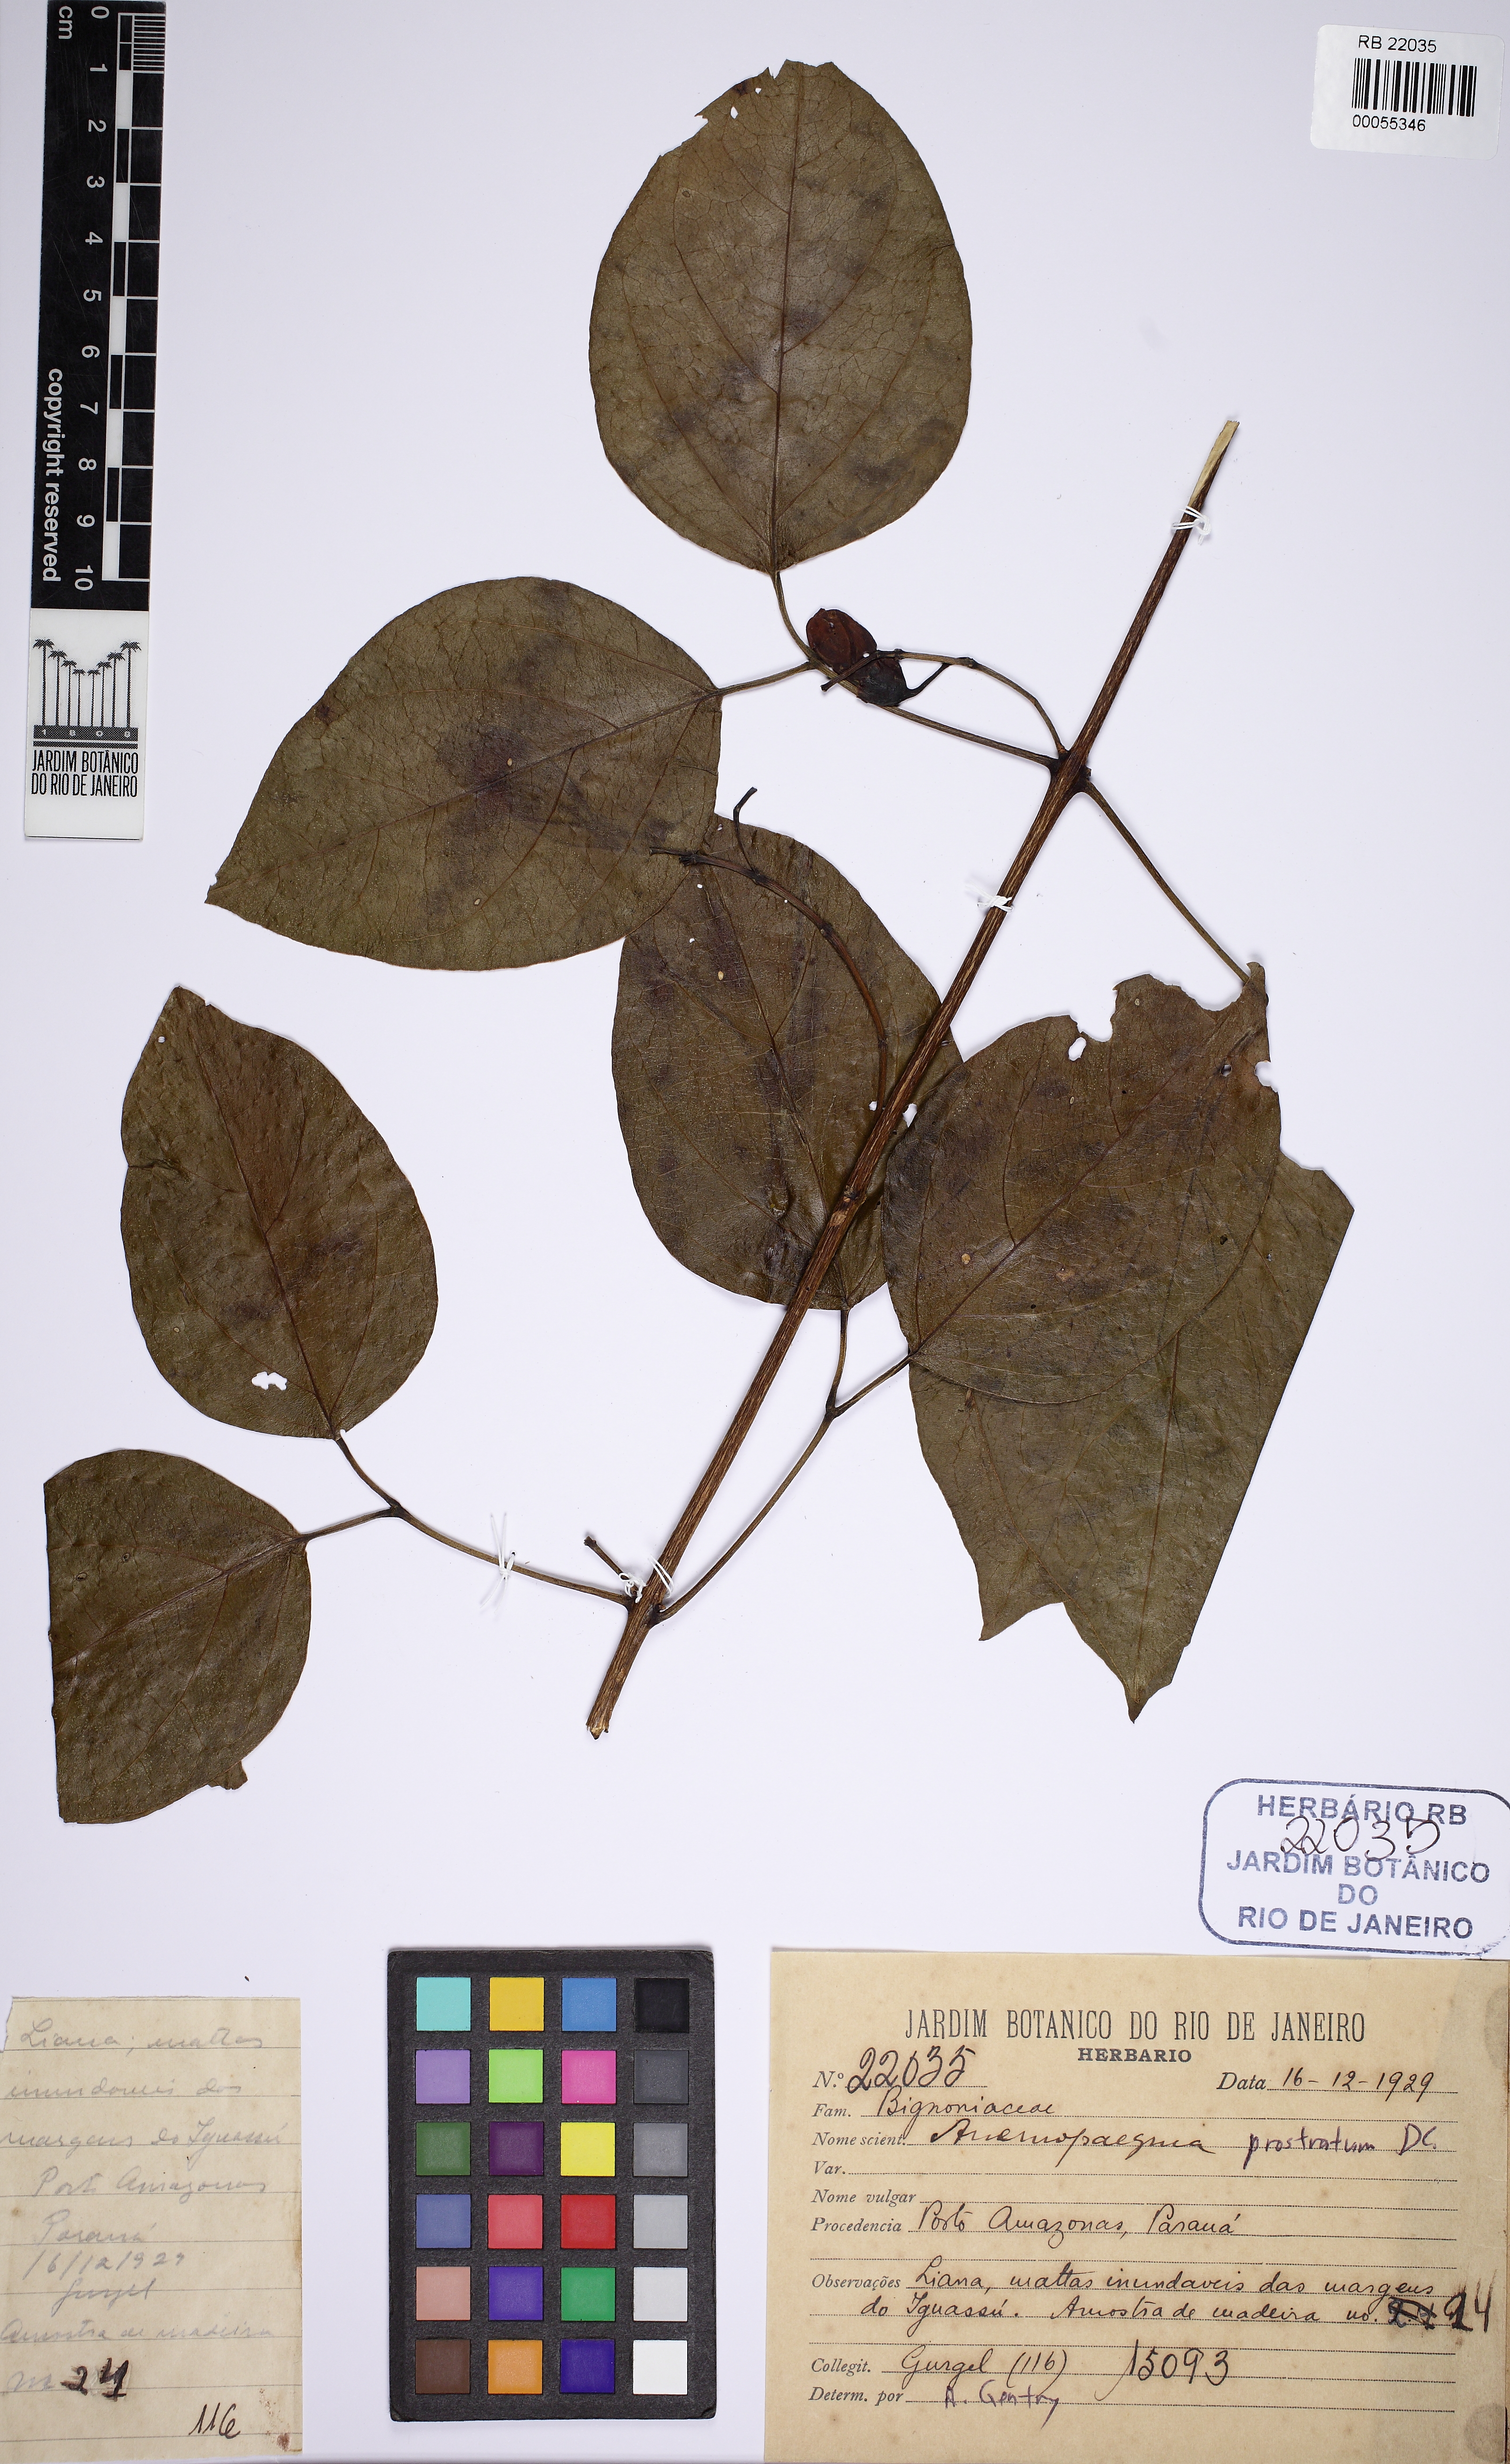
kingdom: Plantae
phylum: Tracheophyta
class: Magnoliopsida
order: Lamiales
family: Bignoniaceae
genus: Anemopaegma
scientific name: Anemopaegma prostratum
